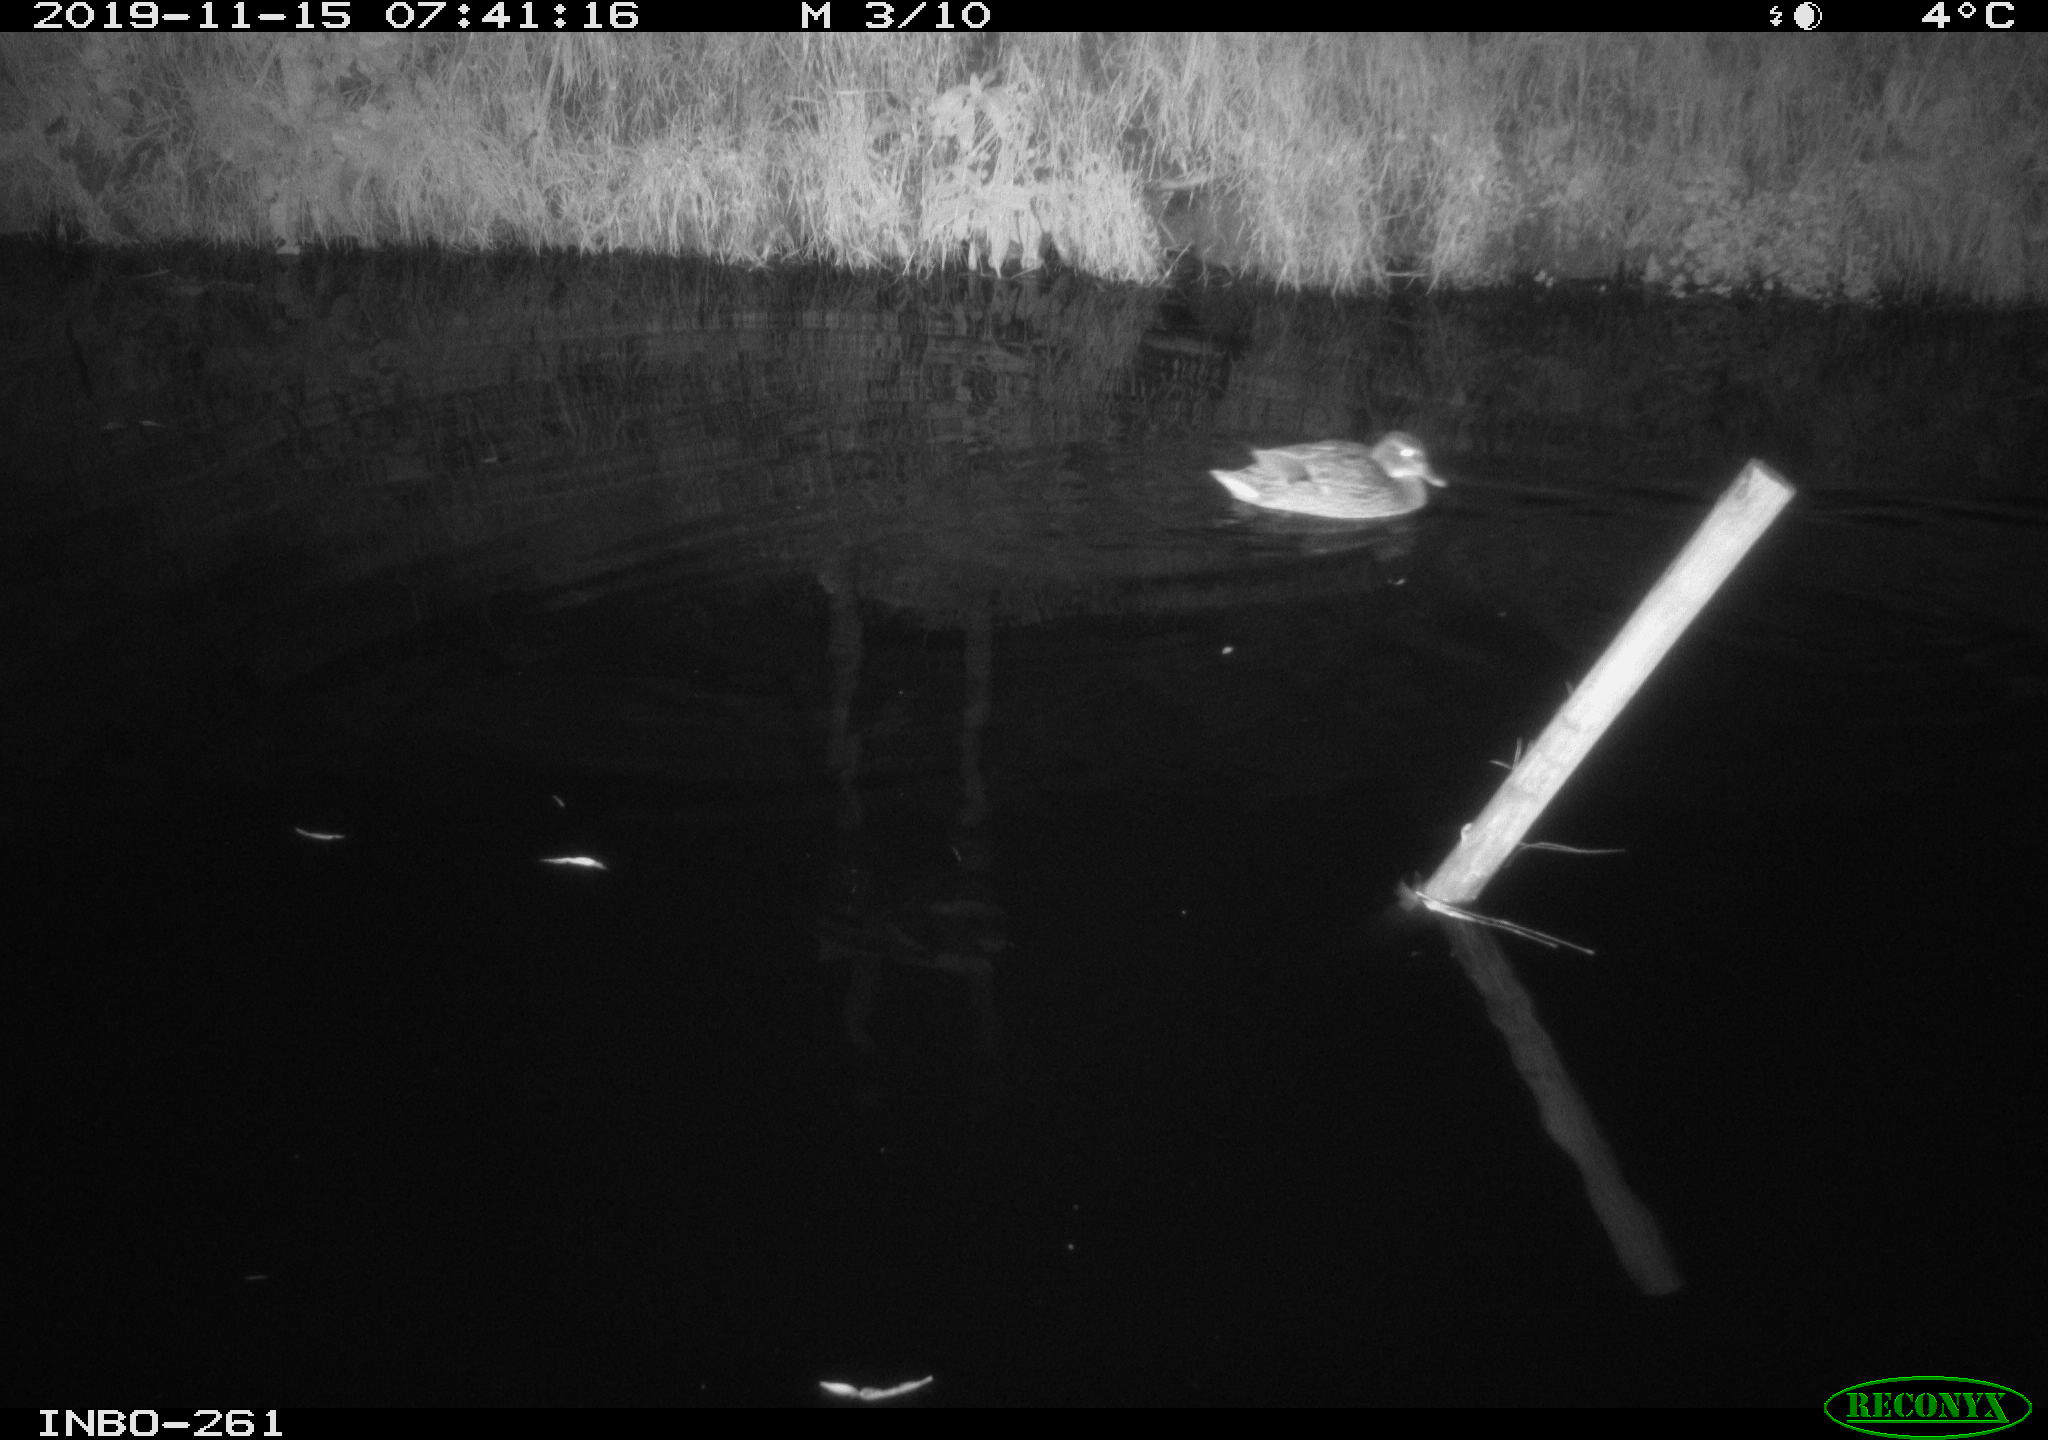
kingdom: Animalia
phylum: Chordata
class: Aves
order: Anseriformes
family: Anatidae
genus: Anas
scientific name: Anas platyrhynchos
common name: Mallard
